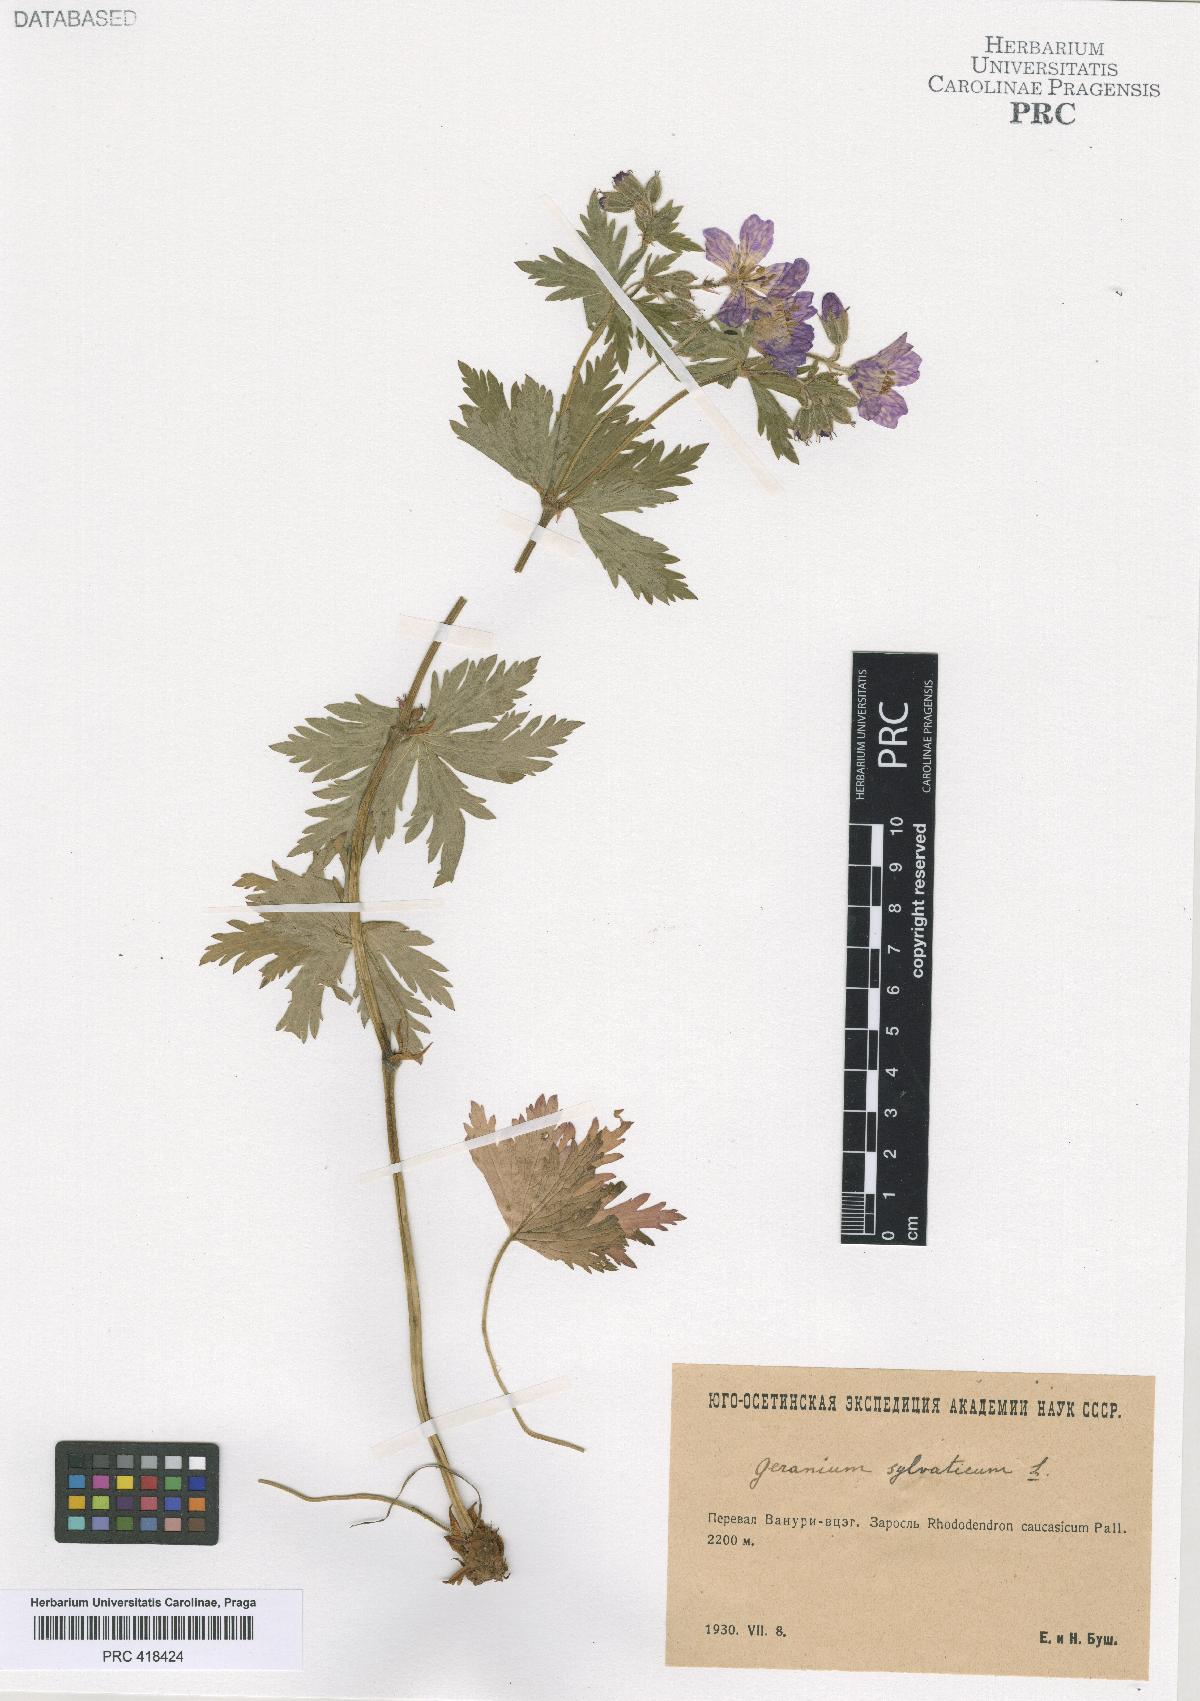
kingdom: Plantae
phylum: Tracheophyta
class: Magnoliopsida
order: Geraniales
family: Geraniaceae
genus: Geranium
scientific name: Geranium sylvaticum
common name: Wood crane's-bill
